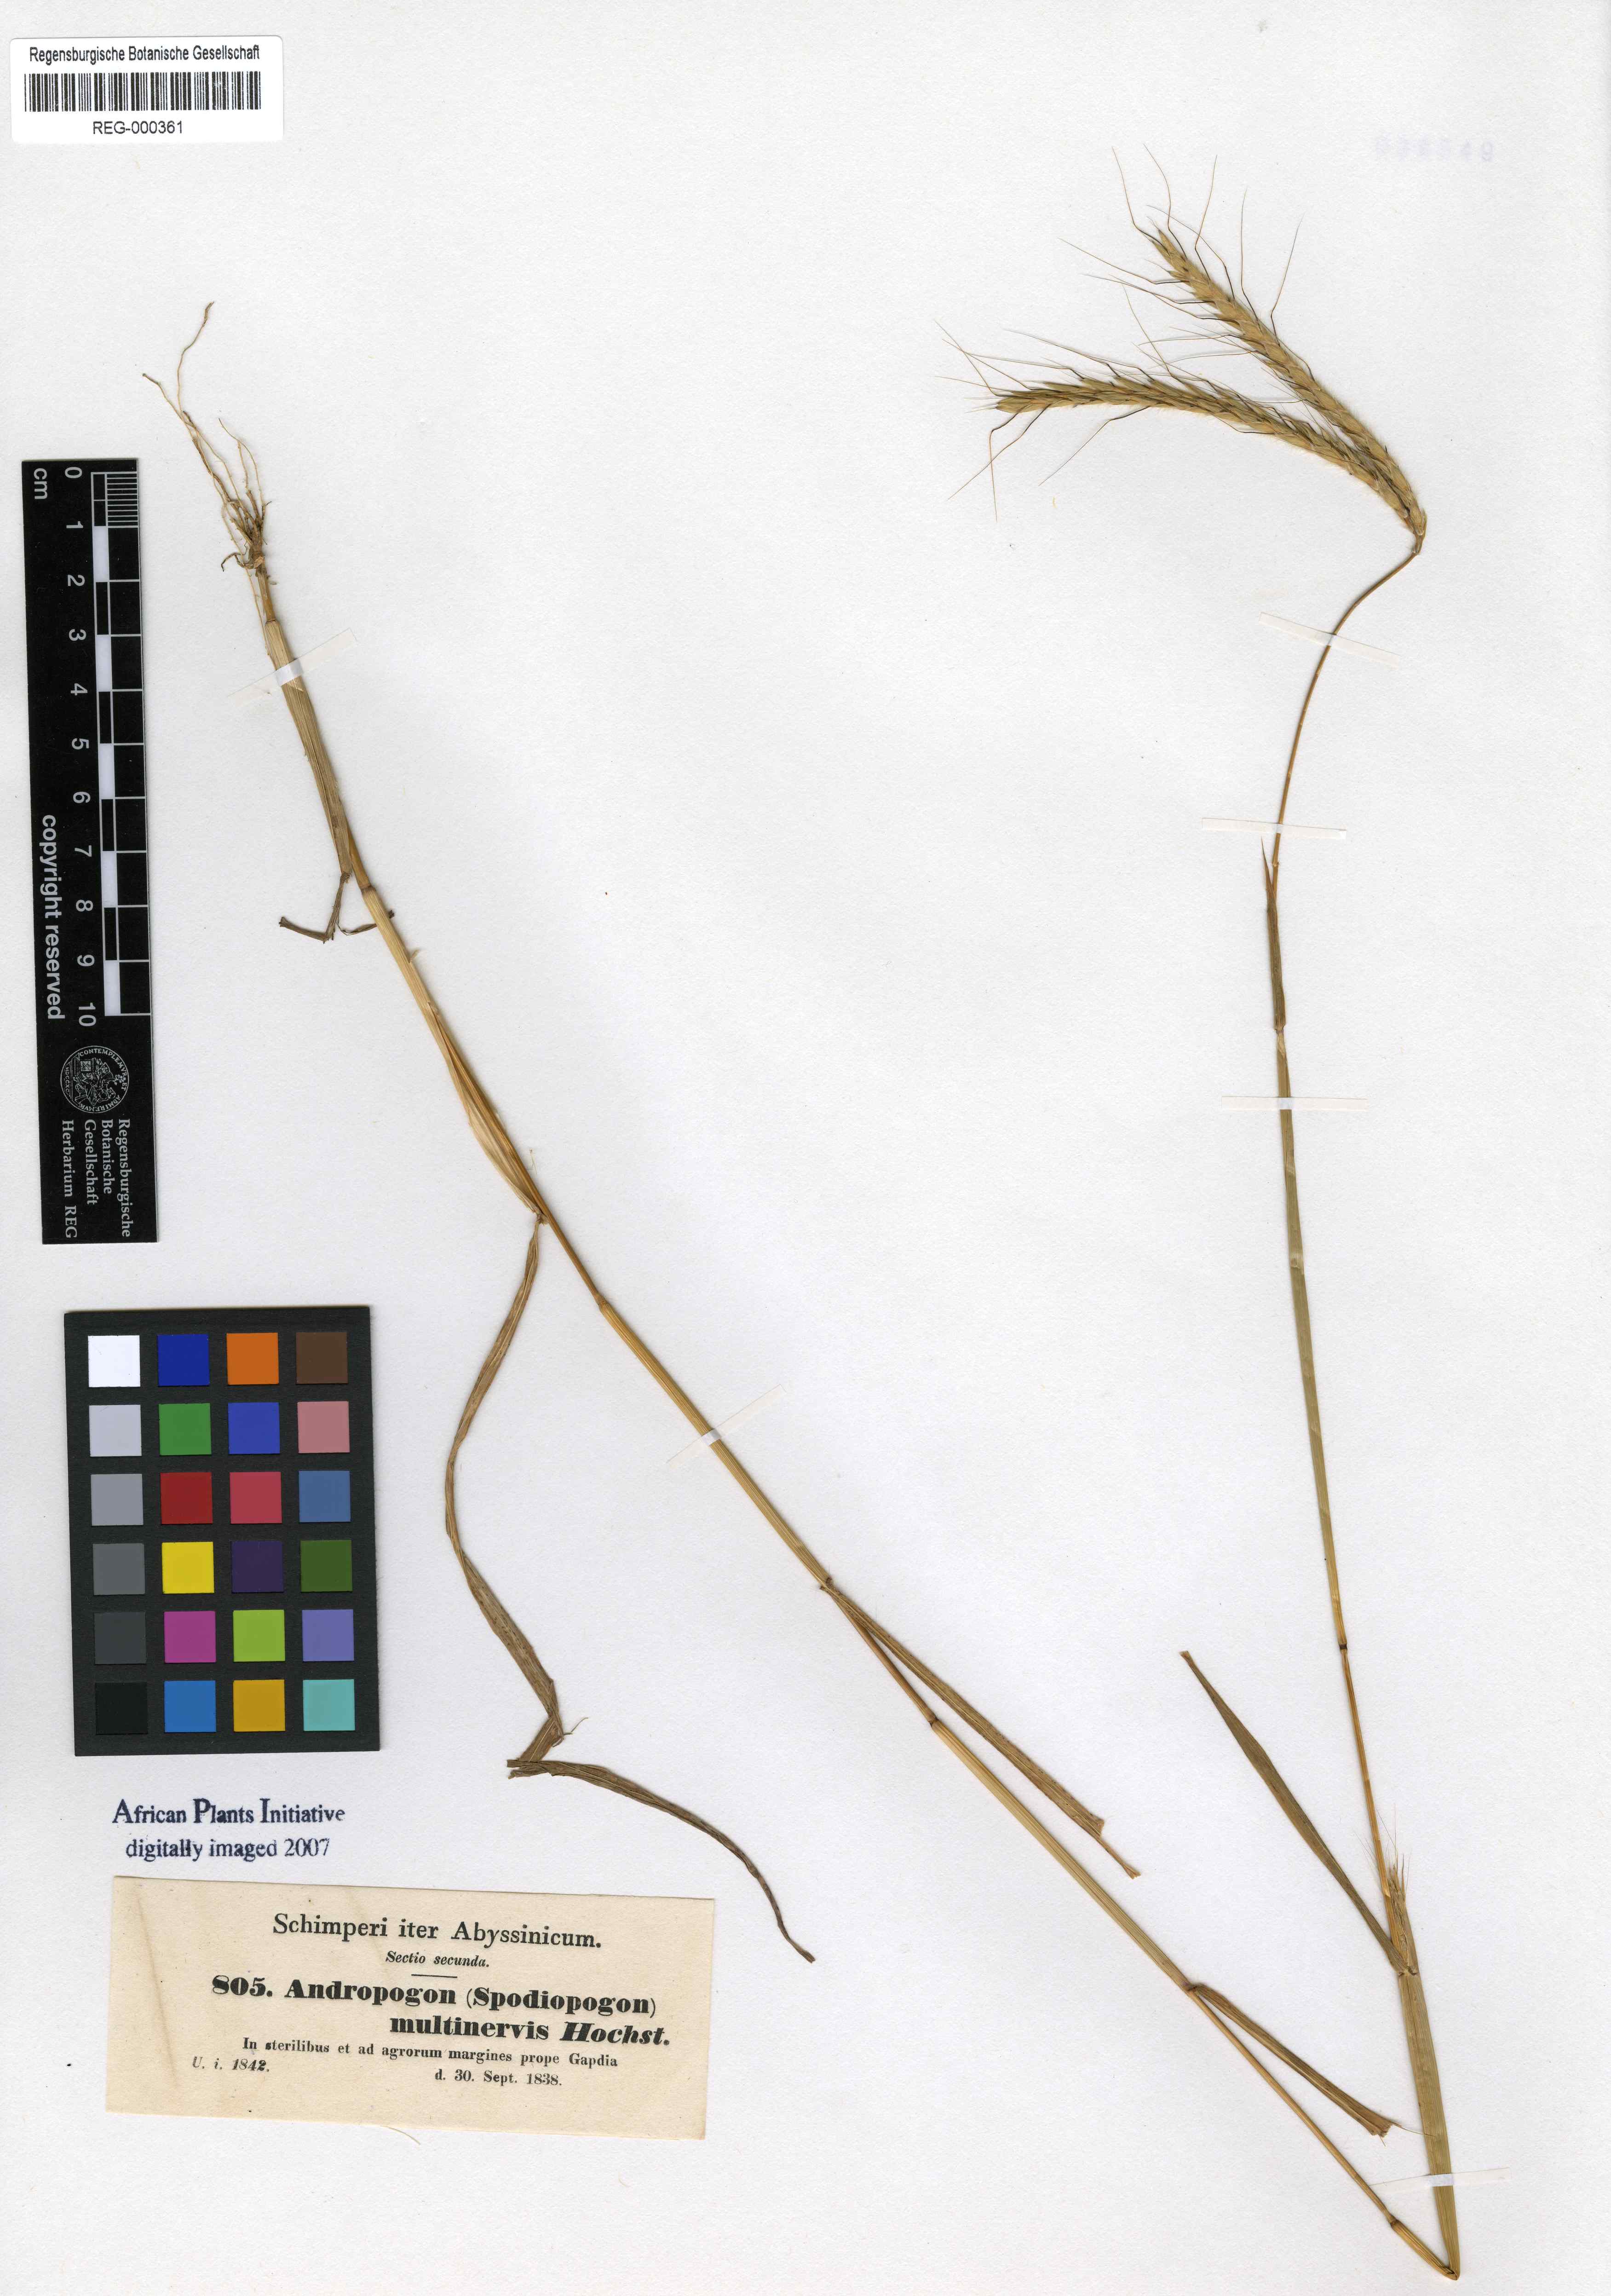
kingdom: Plantae
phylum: Tracheophyta
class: Liliopsida
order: Poales
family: Poaceae
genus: Andropogon
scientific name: Andropogon abyssinicus
